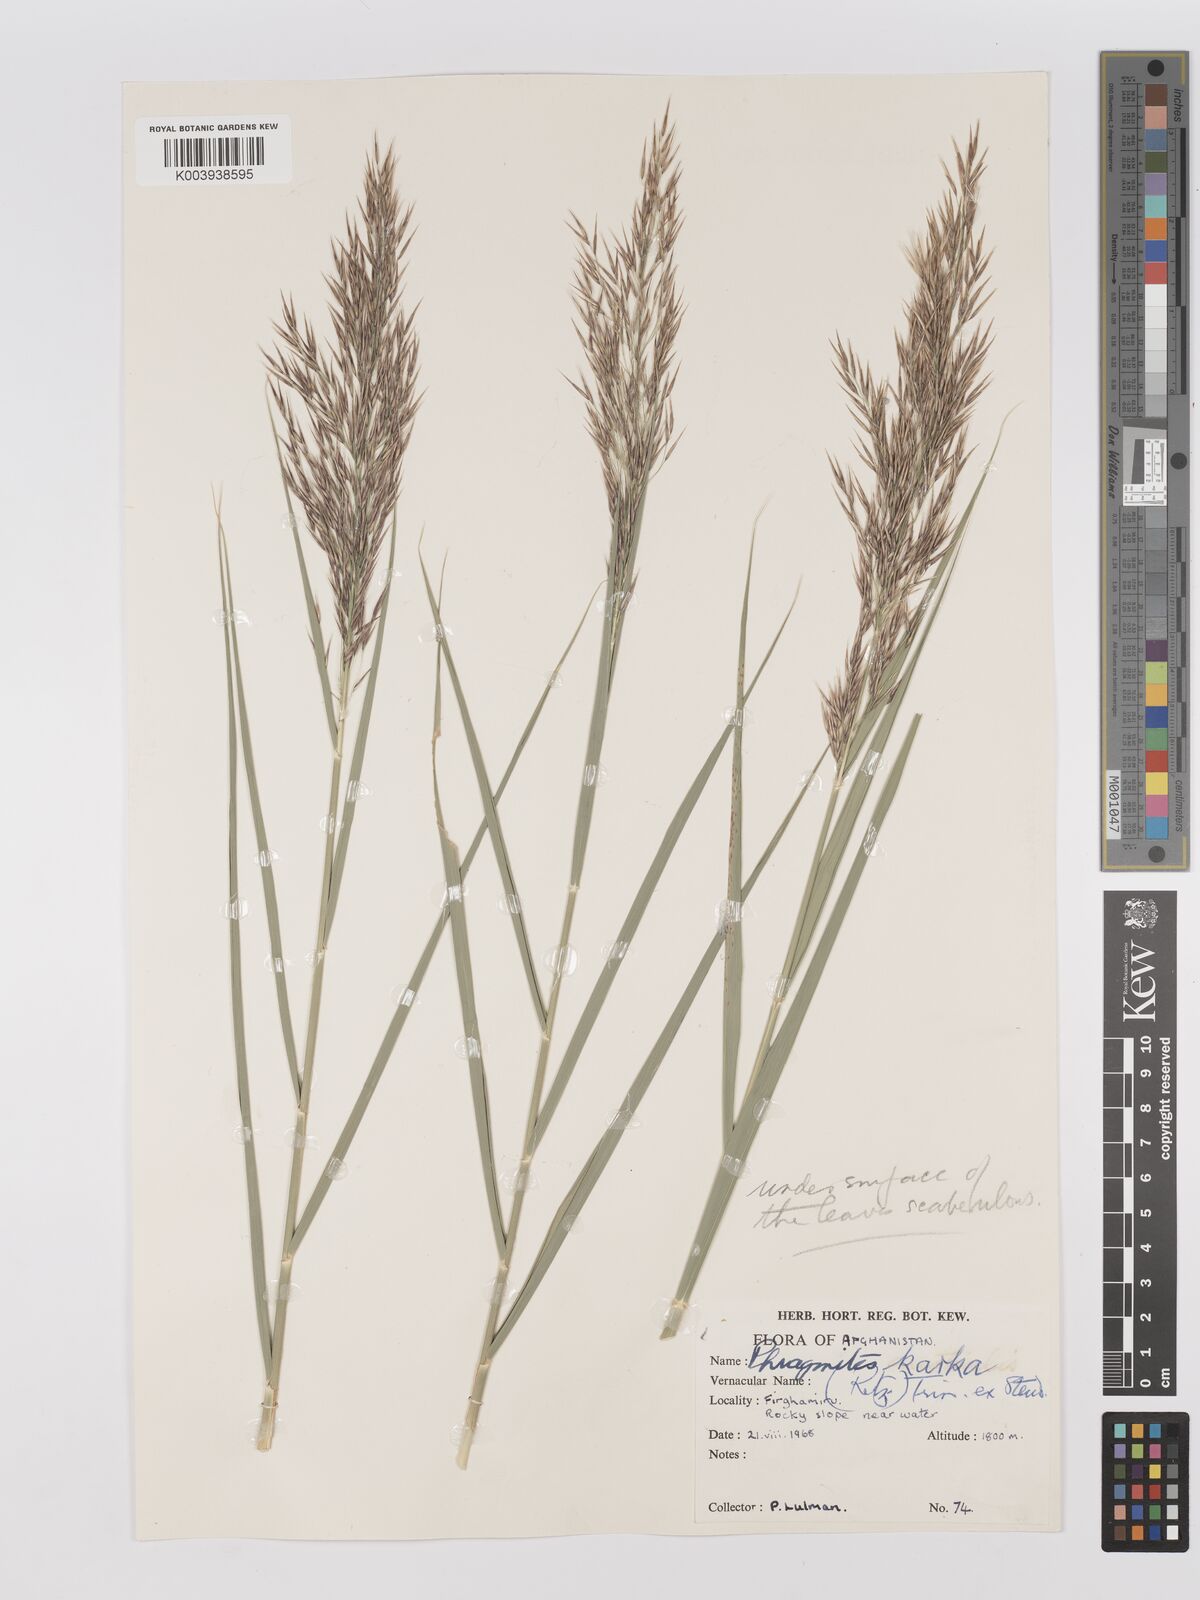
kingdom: Plantae
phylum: Tracheophyta
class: Liliopsida
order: Poales
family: Poaceae
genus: Phragmites
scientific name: Phragmites karka
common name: Tropical reed
